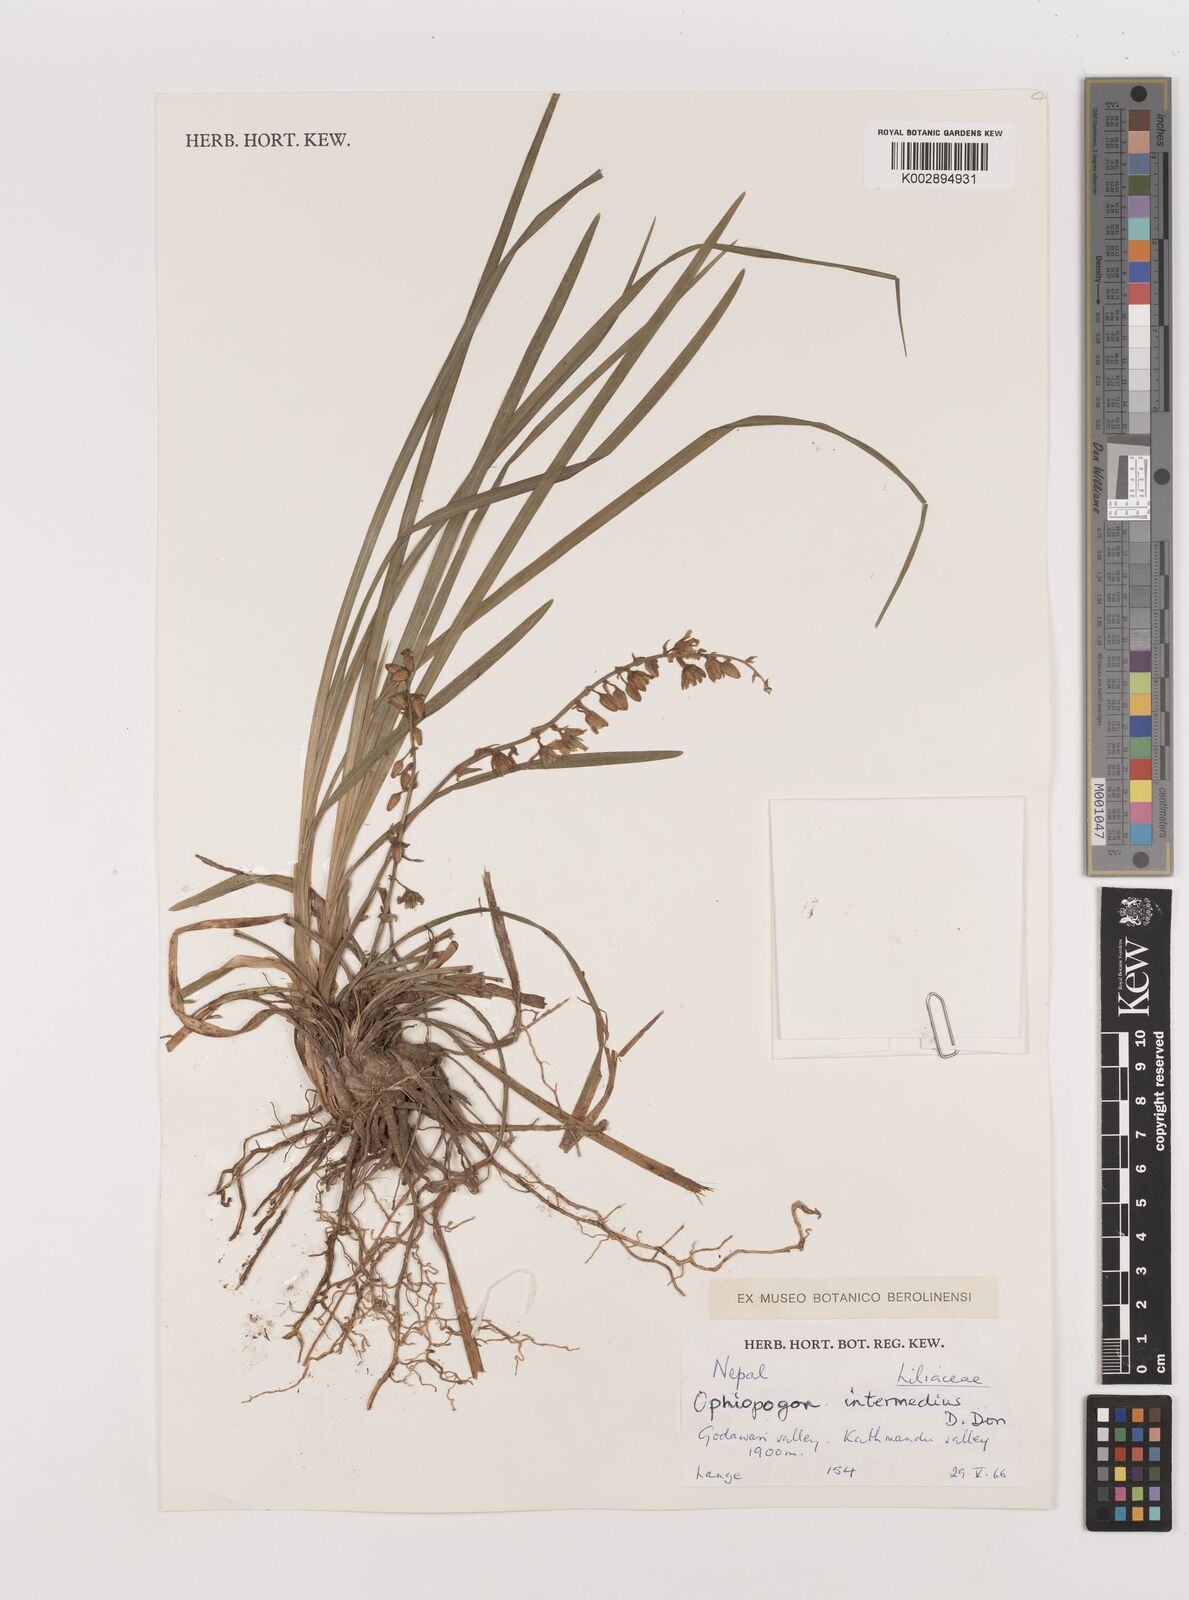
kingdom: Plantae
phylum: Tracheophyta
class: Liliopsida
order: Asparagales
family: Asparagaceae
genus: Ophiopogon
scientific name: Ophiopogon intermedius
